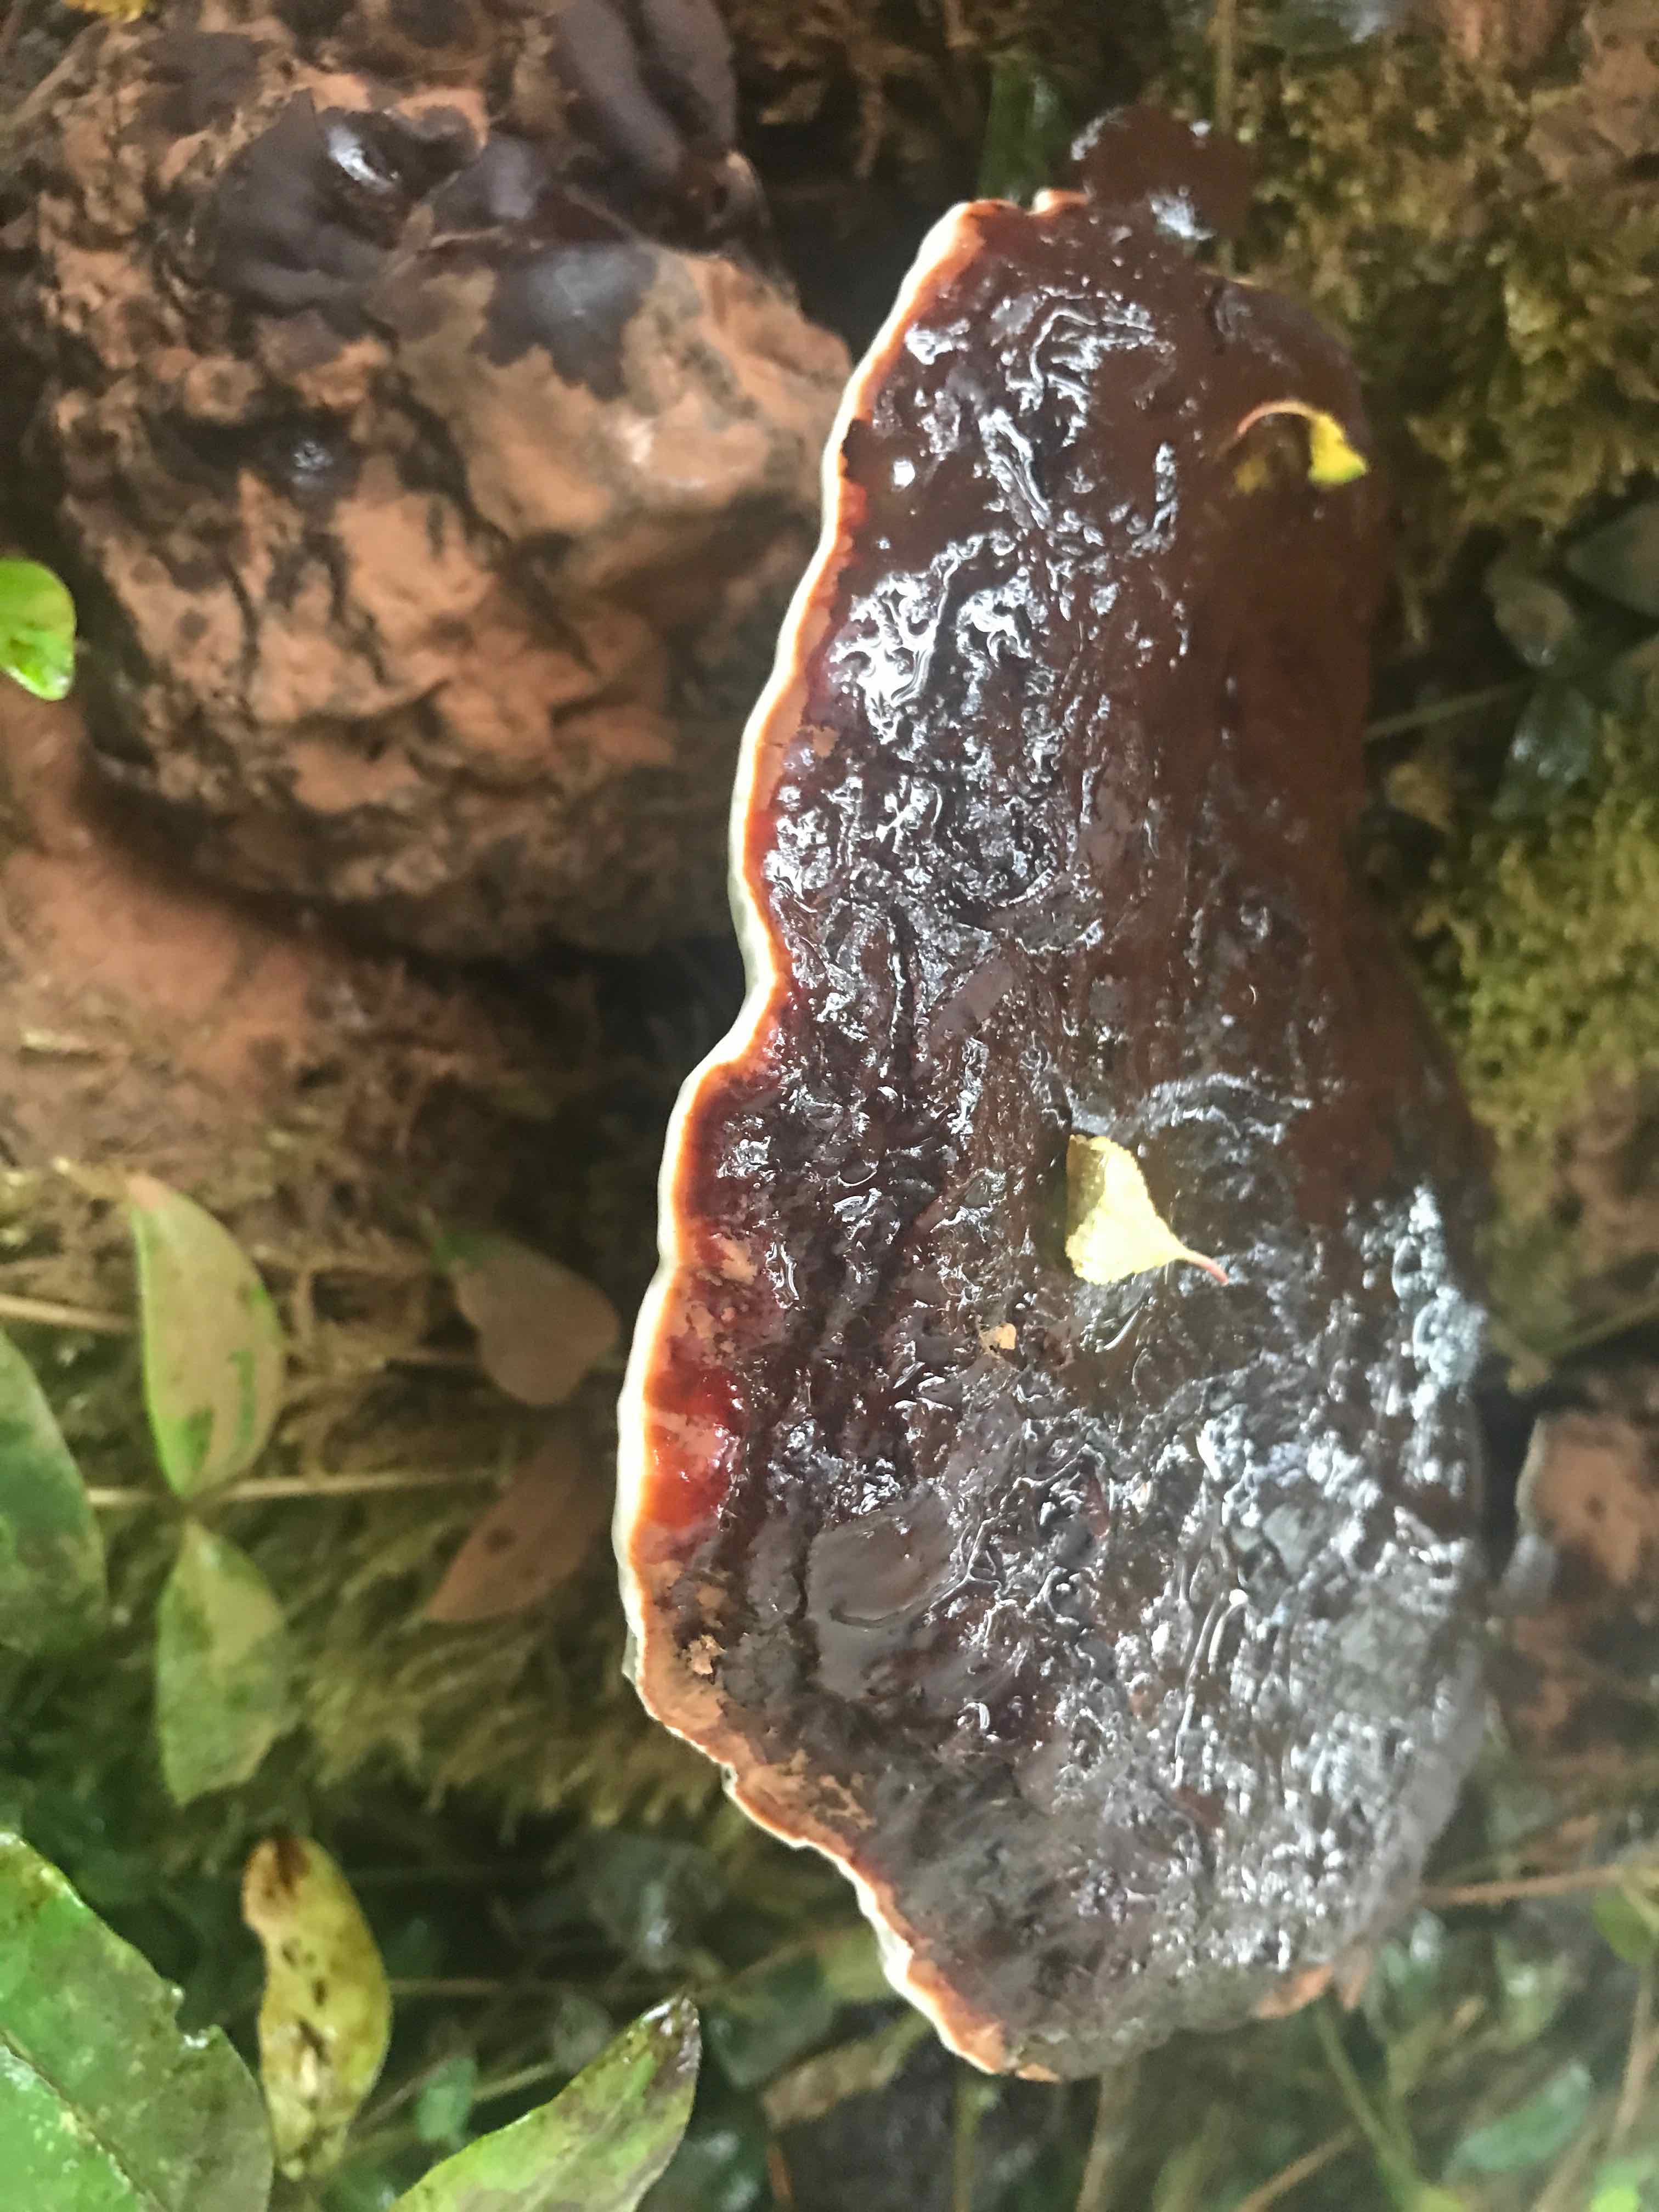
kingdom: Fungi
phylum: Basidiomycota
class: Agaricomycetes
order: Polyporales
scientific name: Polyporales
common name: poresvampordenen
